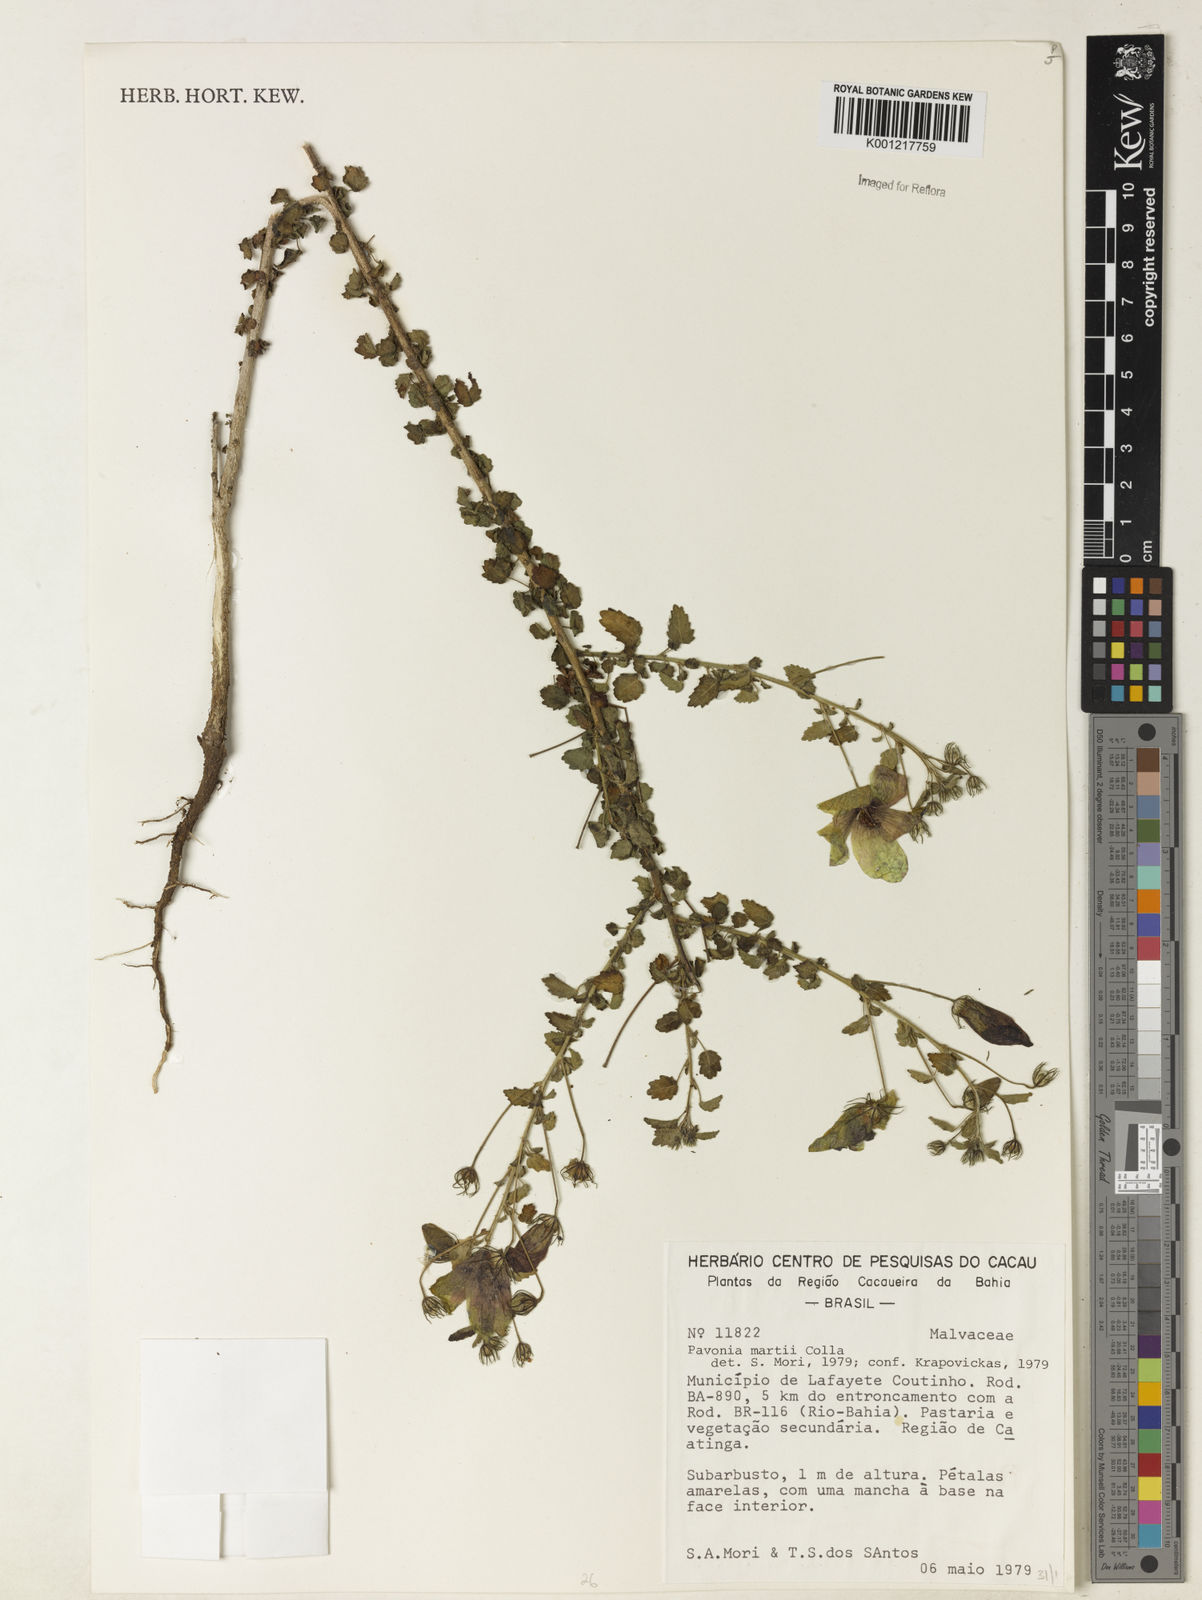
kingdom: Plantae
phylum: Tracheophyta
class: Magnoliopsida
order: Malvales
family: Malvaceae
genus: Pavonia
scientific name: Pavonia martii
